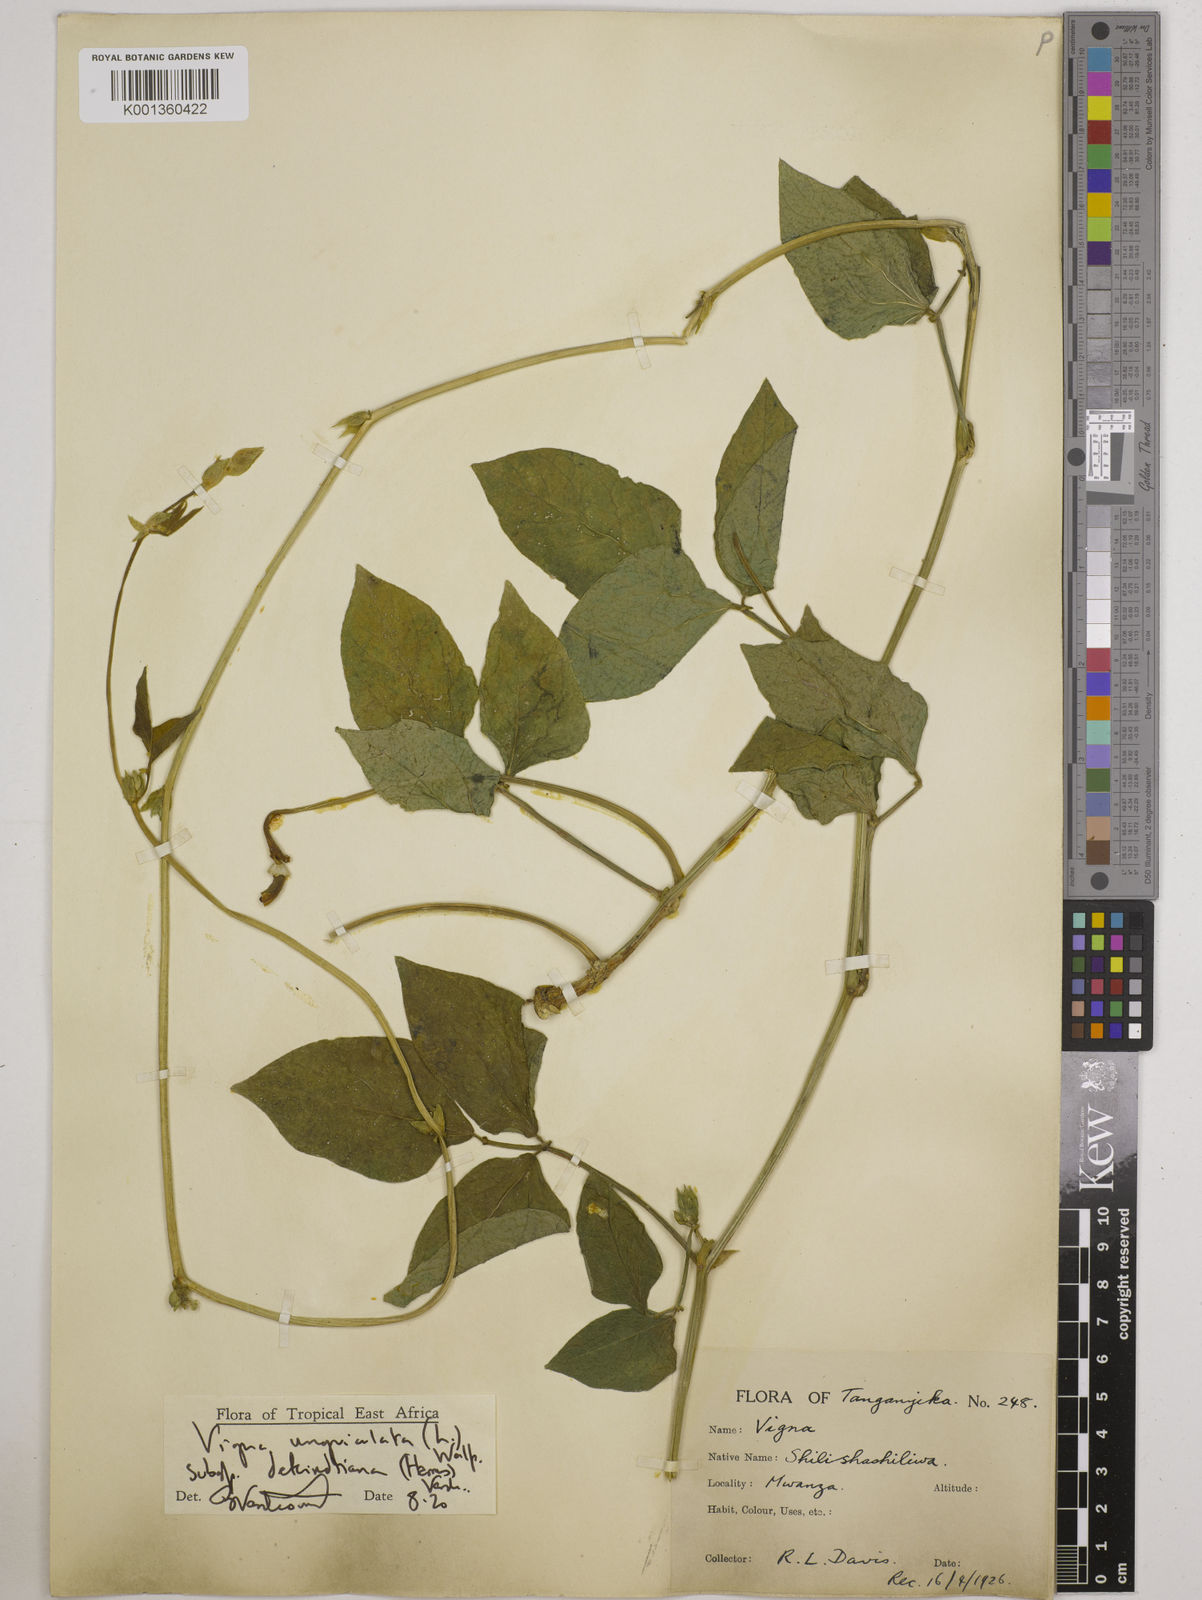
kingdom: Plantae
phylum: Tracheophyta
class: Magnoliopsida
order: Fabales
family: Fabaceae
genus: Vigna
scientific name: Vigna
